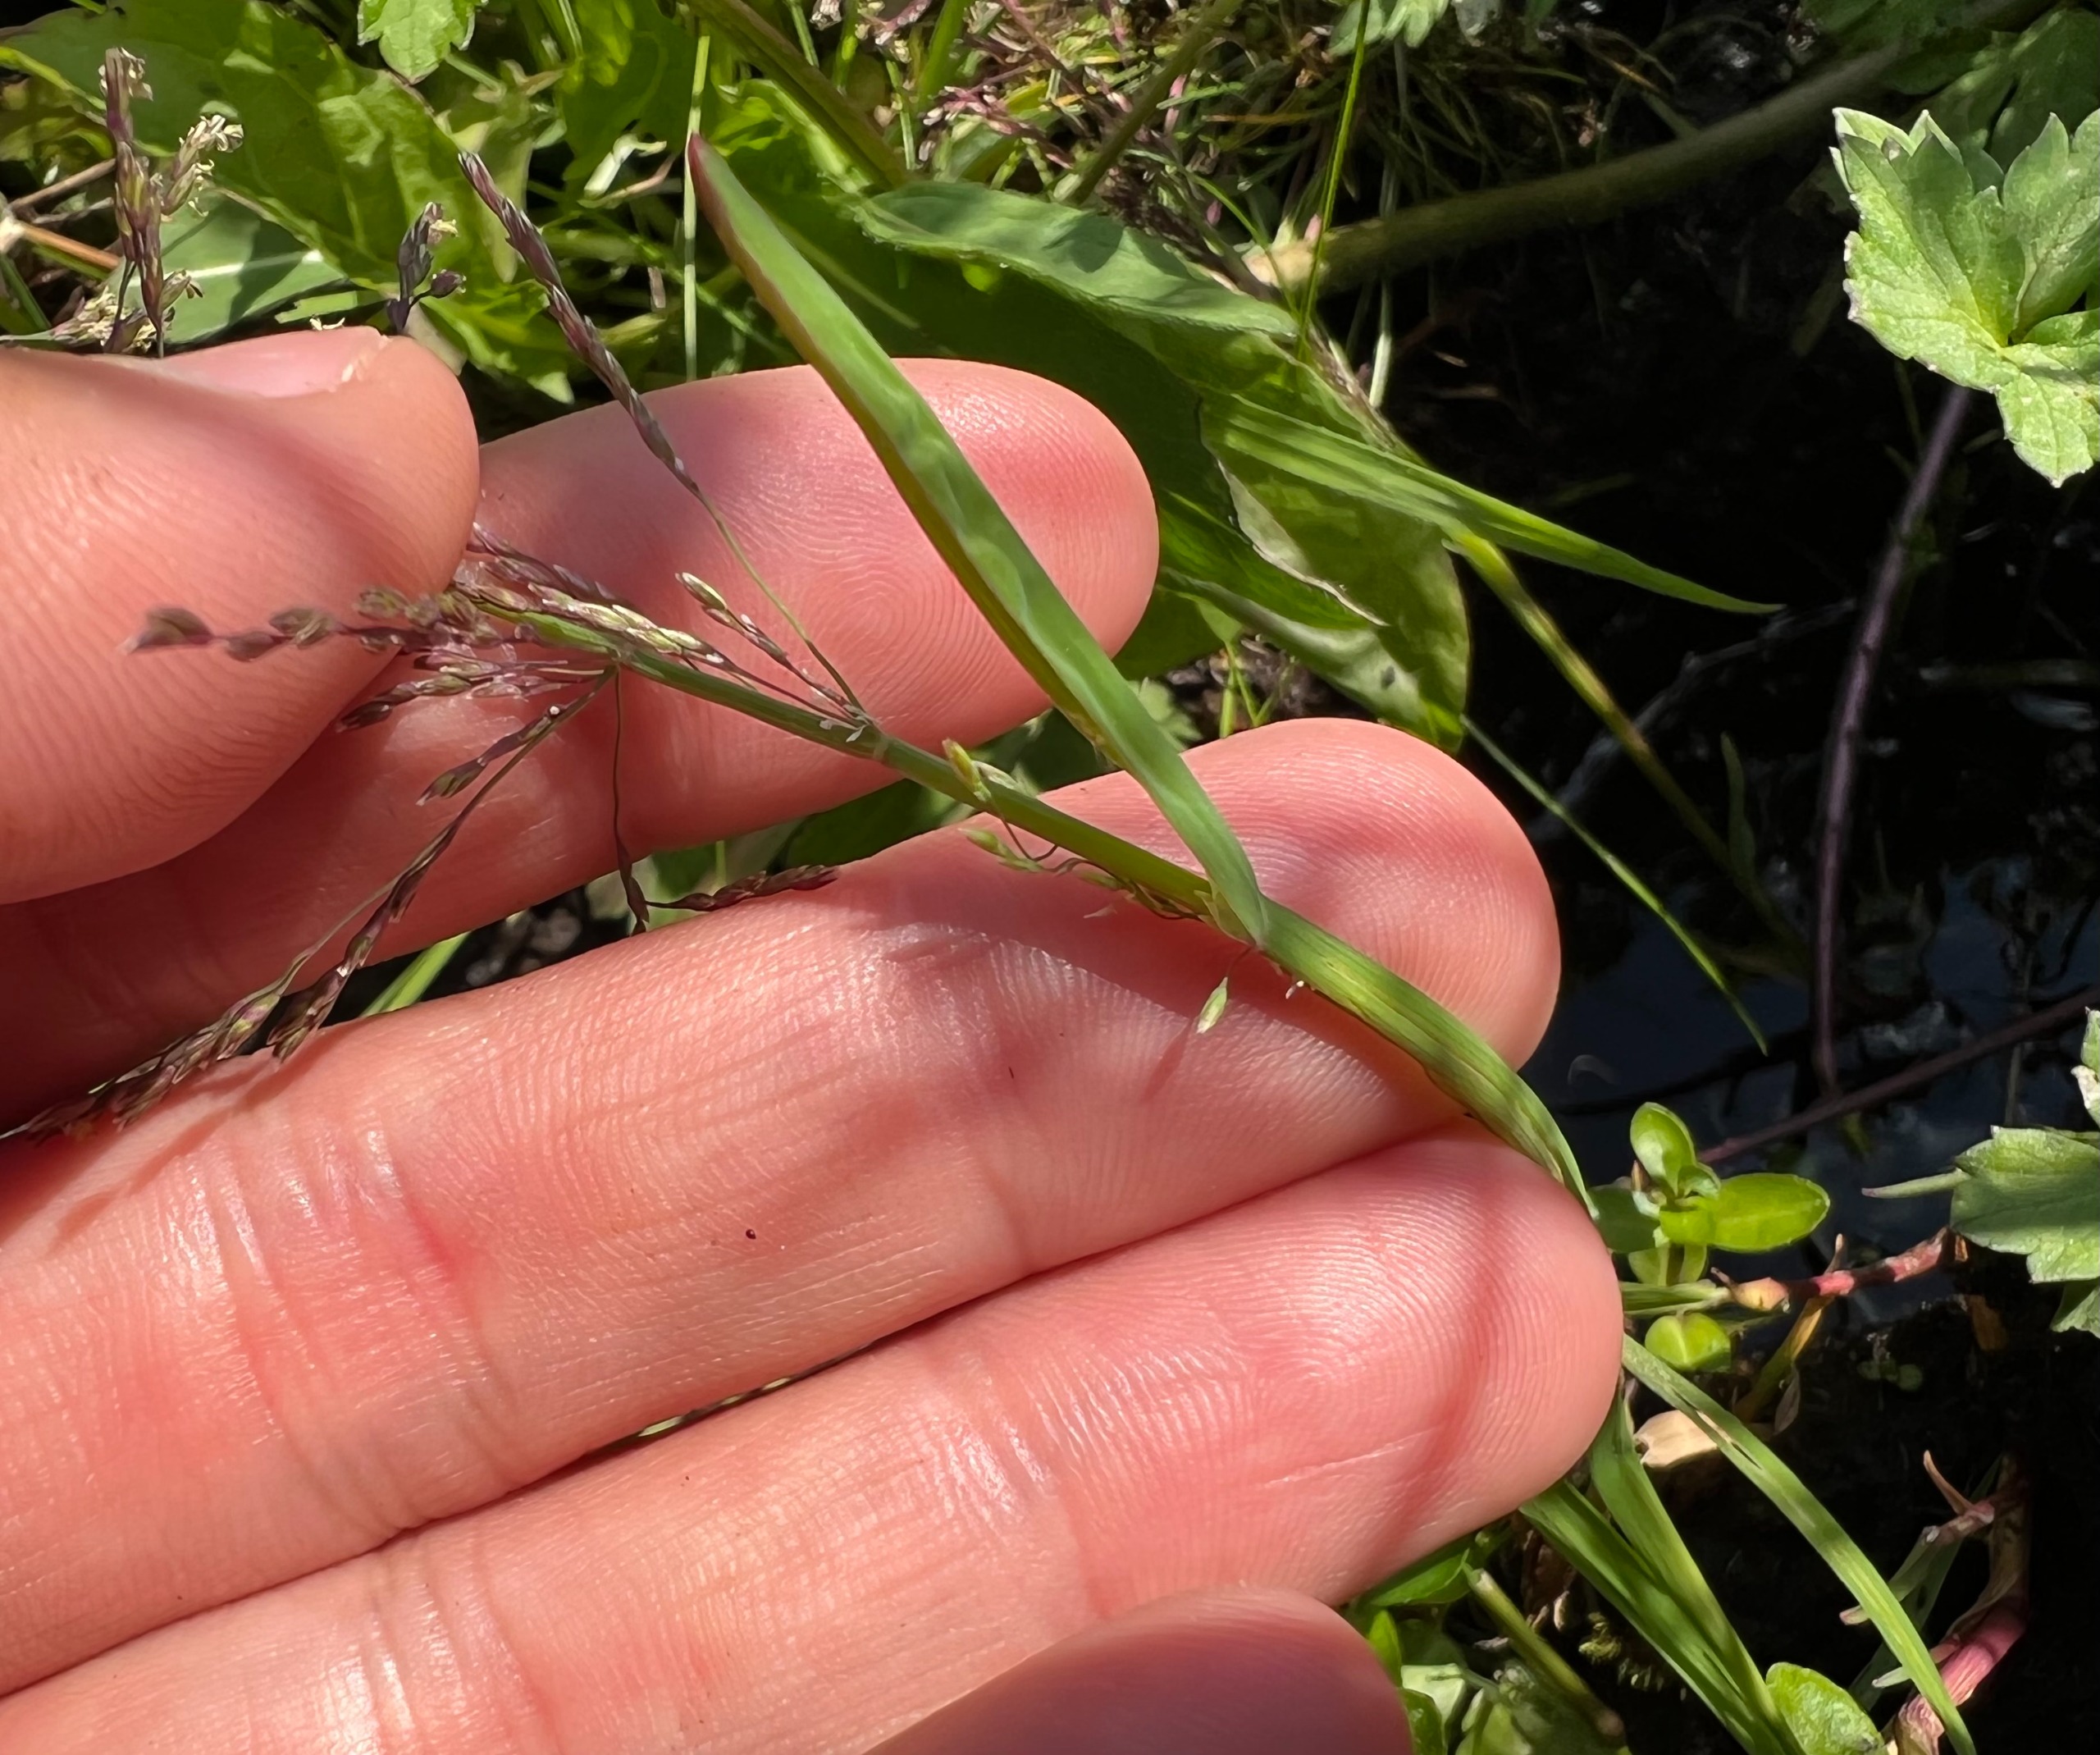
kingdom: Plantae
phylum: Tracheophyta
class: Liliopsida
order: Poales
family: Poaceae
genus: Catabrosa
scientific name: Catabrosa aquatica
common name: Tæppegræs
